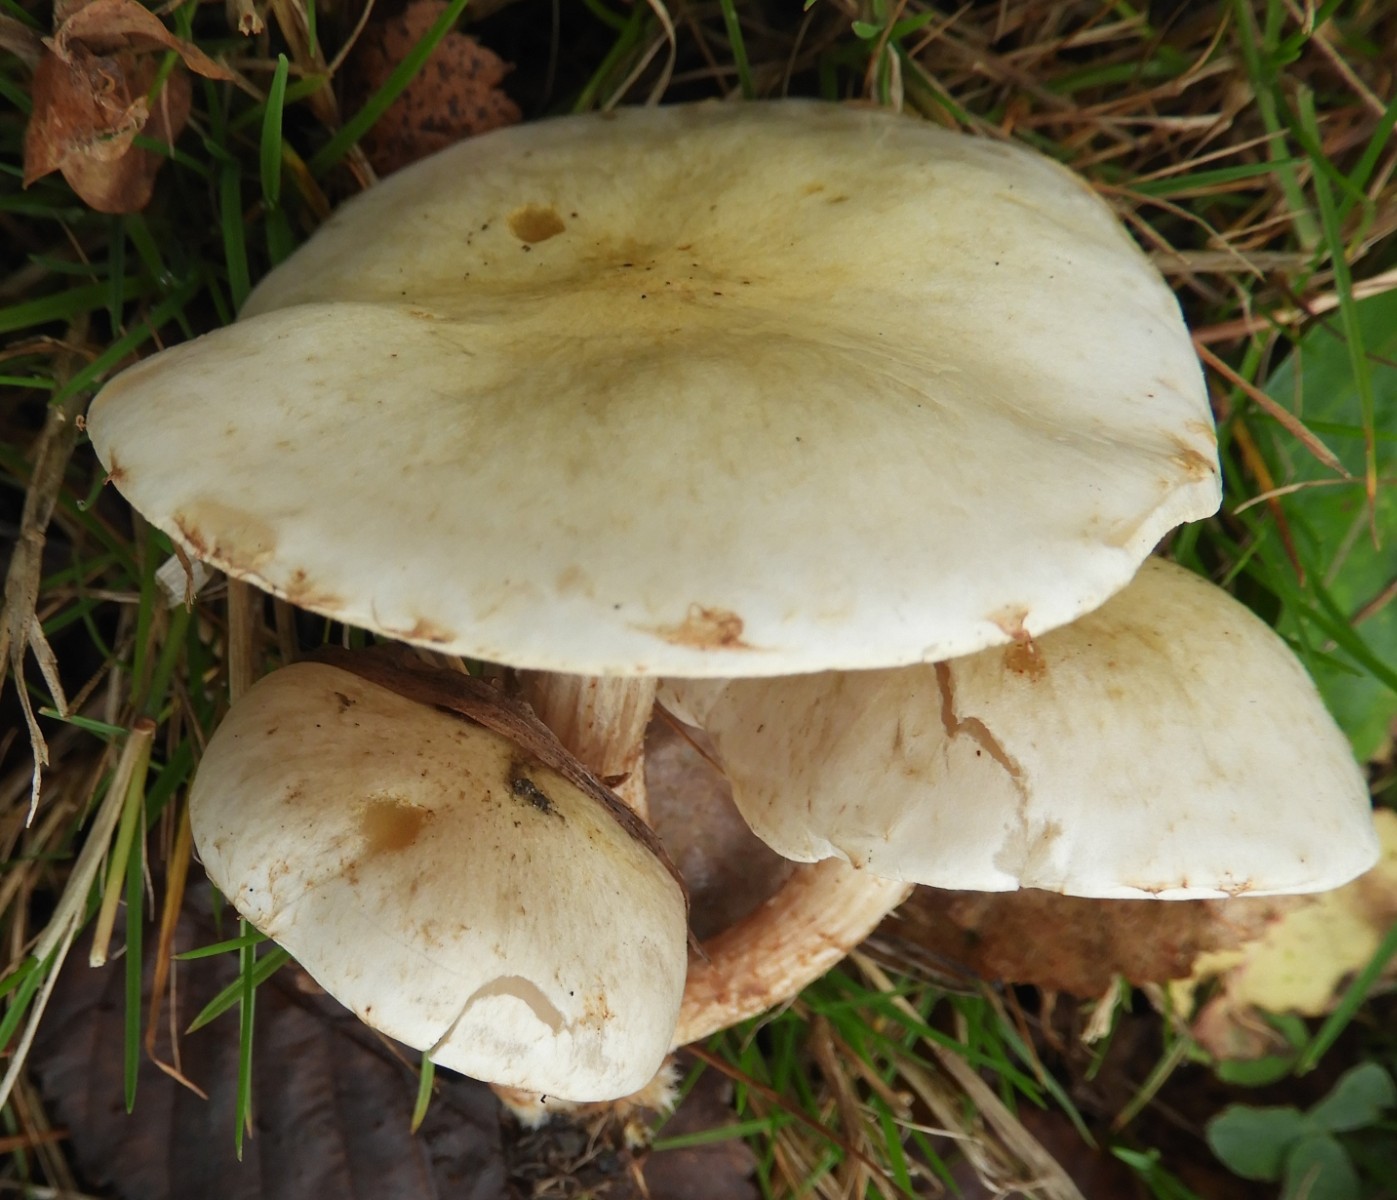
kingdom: Fungi
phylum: Basidiomycota
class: Agaricomycetes
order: Agaricales
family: Strophariaceae
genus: Pholiota
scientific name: Pholiota gummosa
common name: grøngul skælhat
